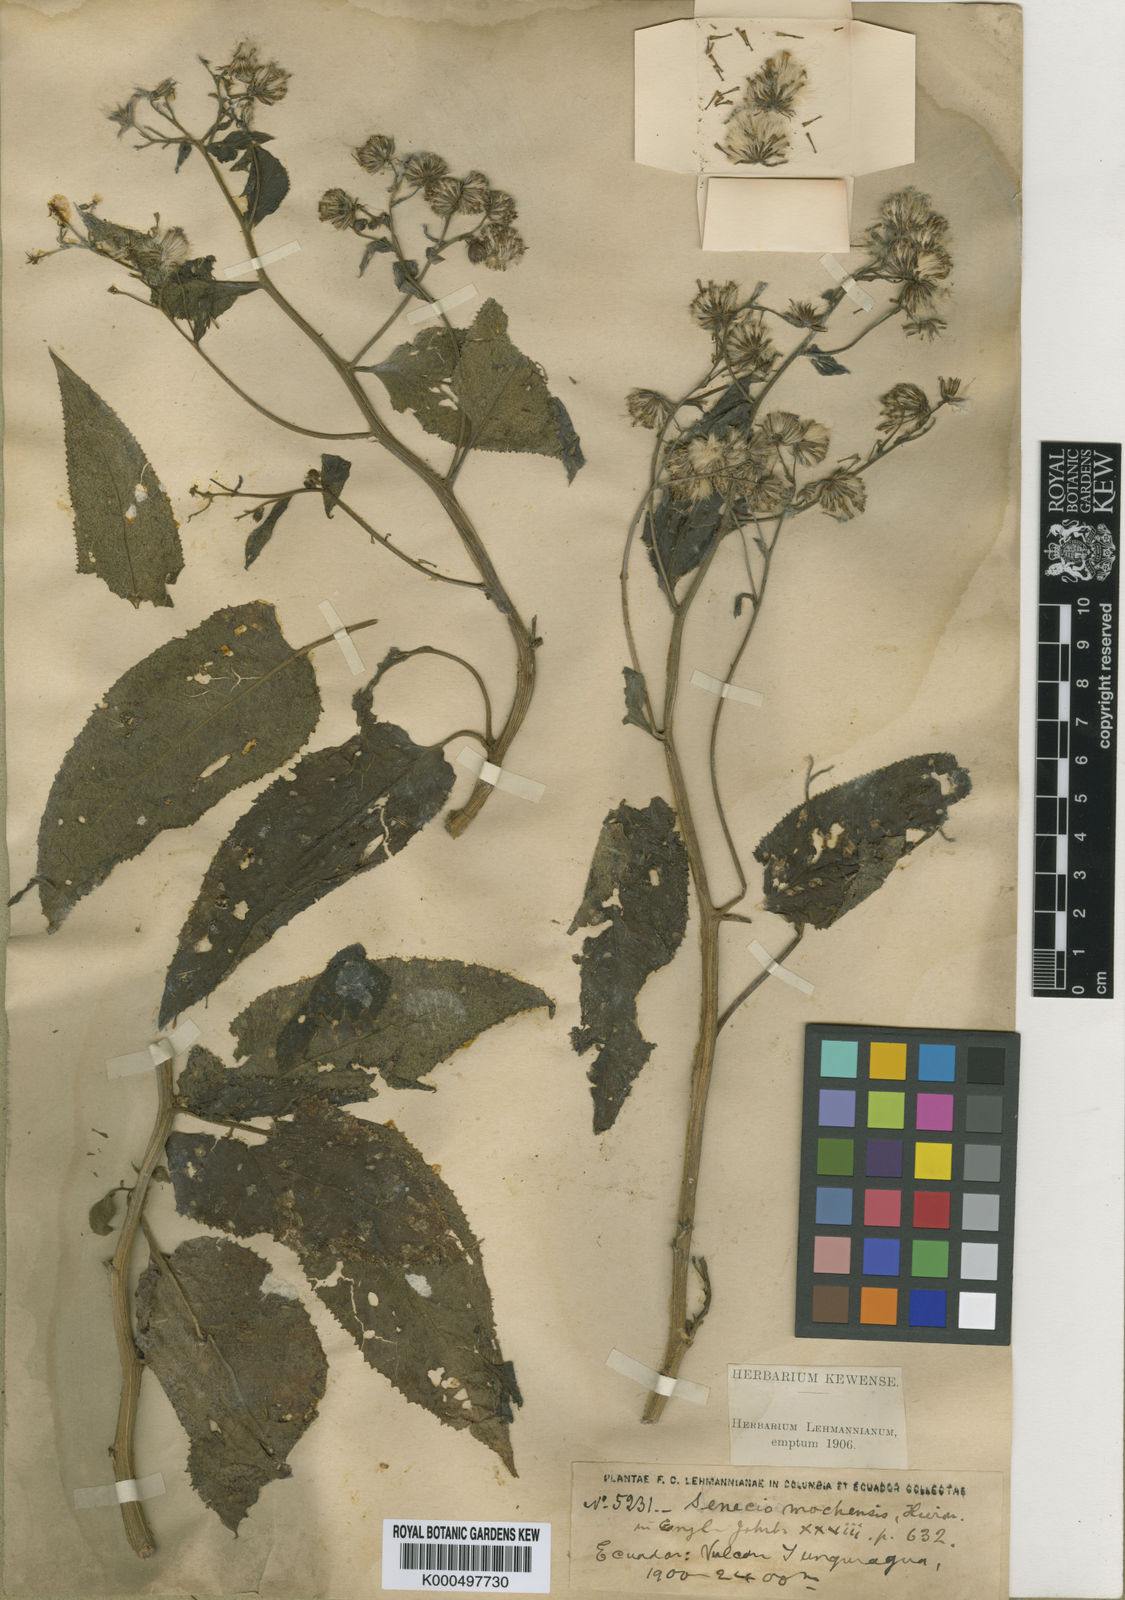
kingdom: Plantae
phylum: Tracheophyta
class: Magnoliopsida
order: Asterales
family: Asteraceae
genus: Aetheolaena
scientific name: Aetheolaena mochensis
